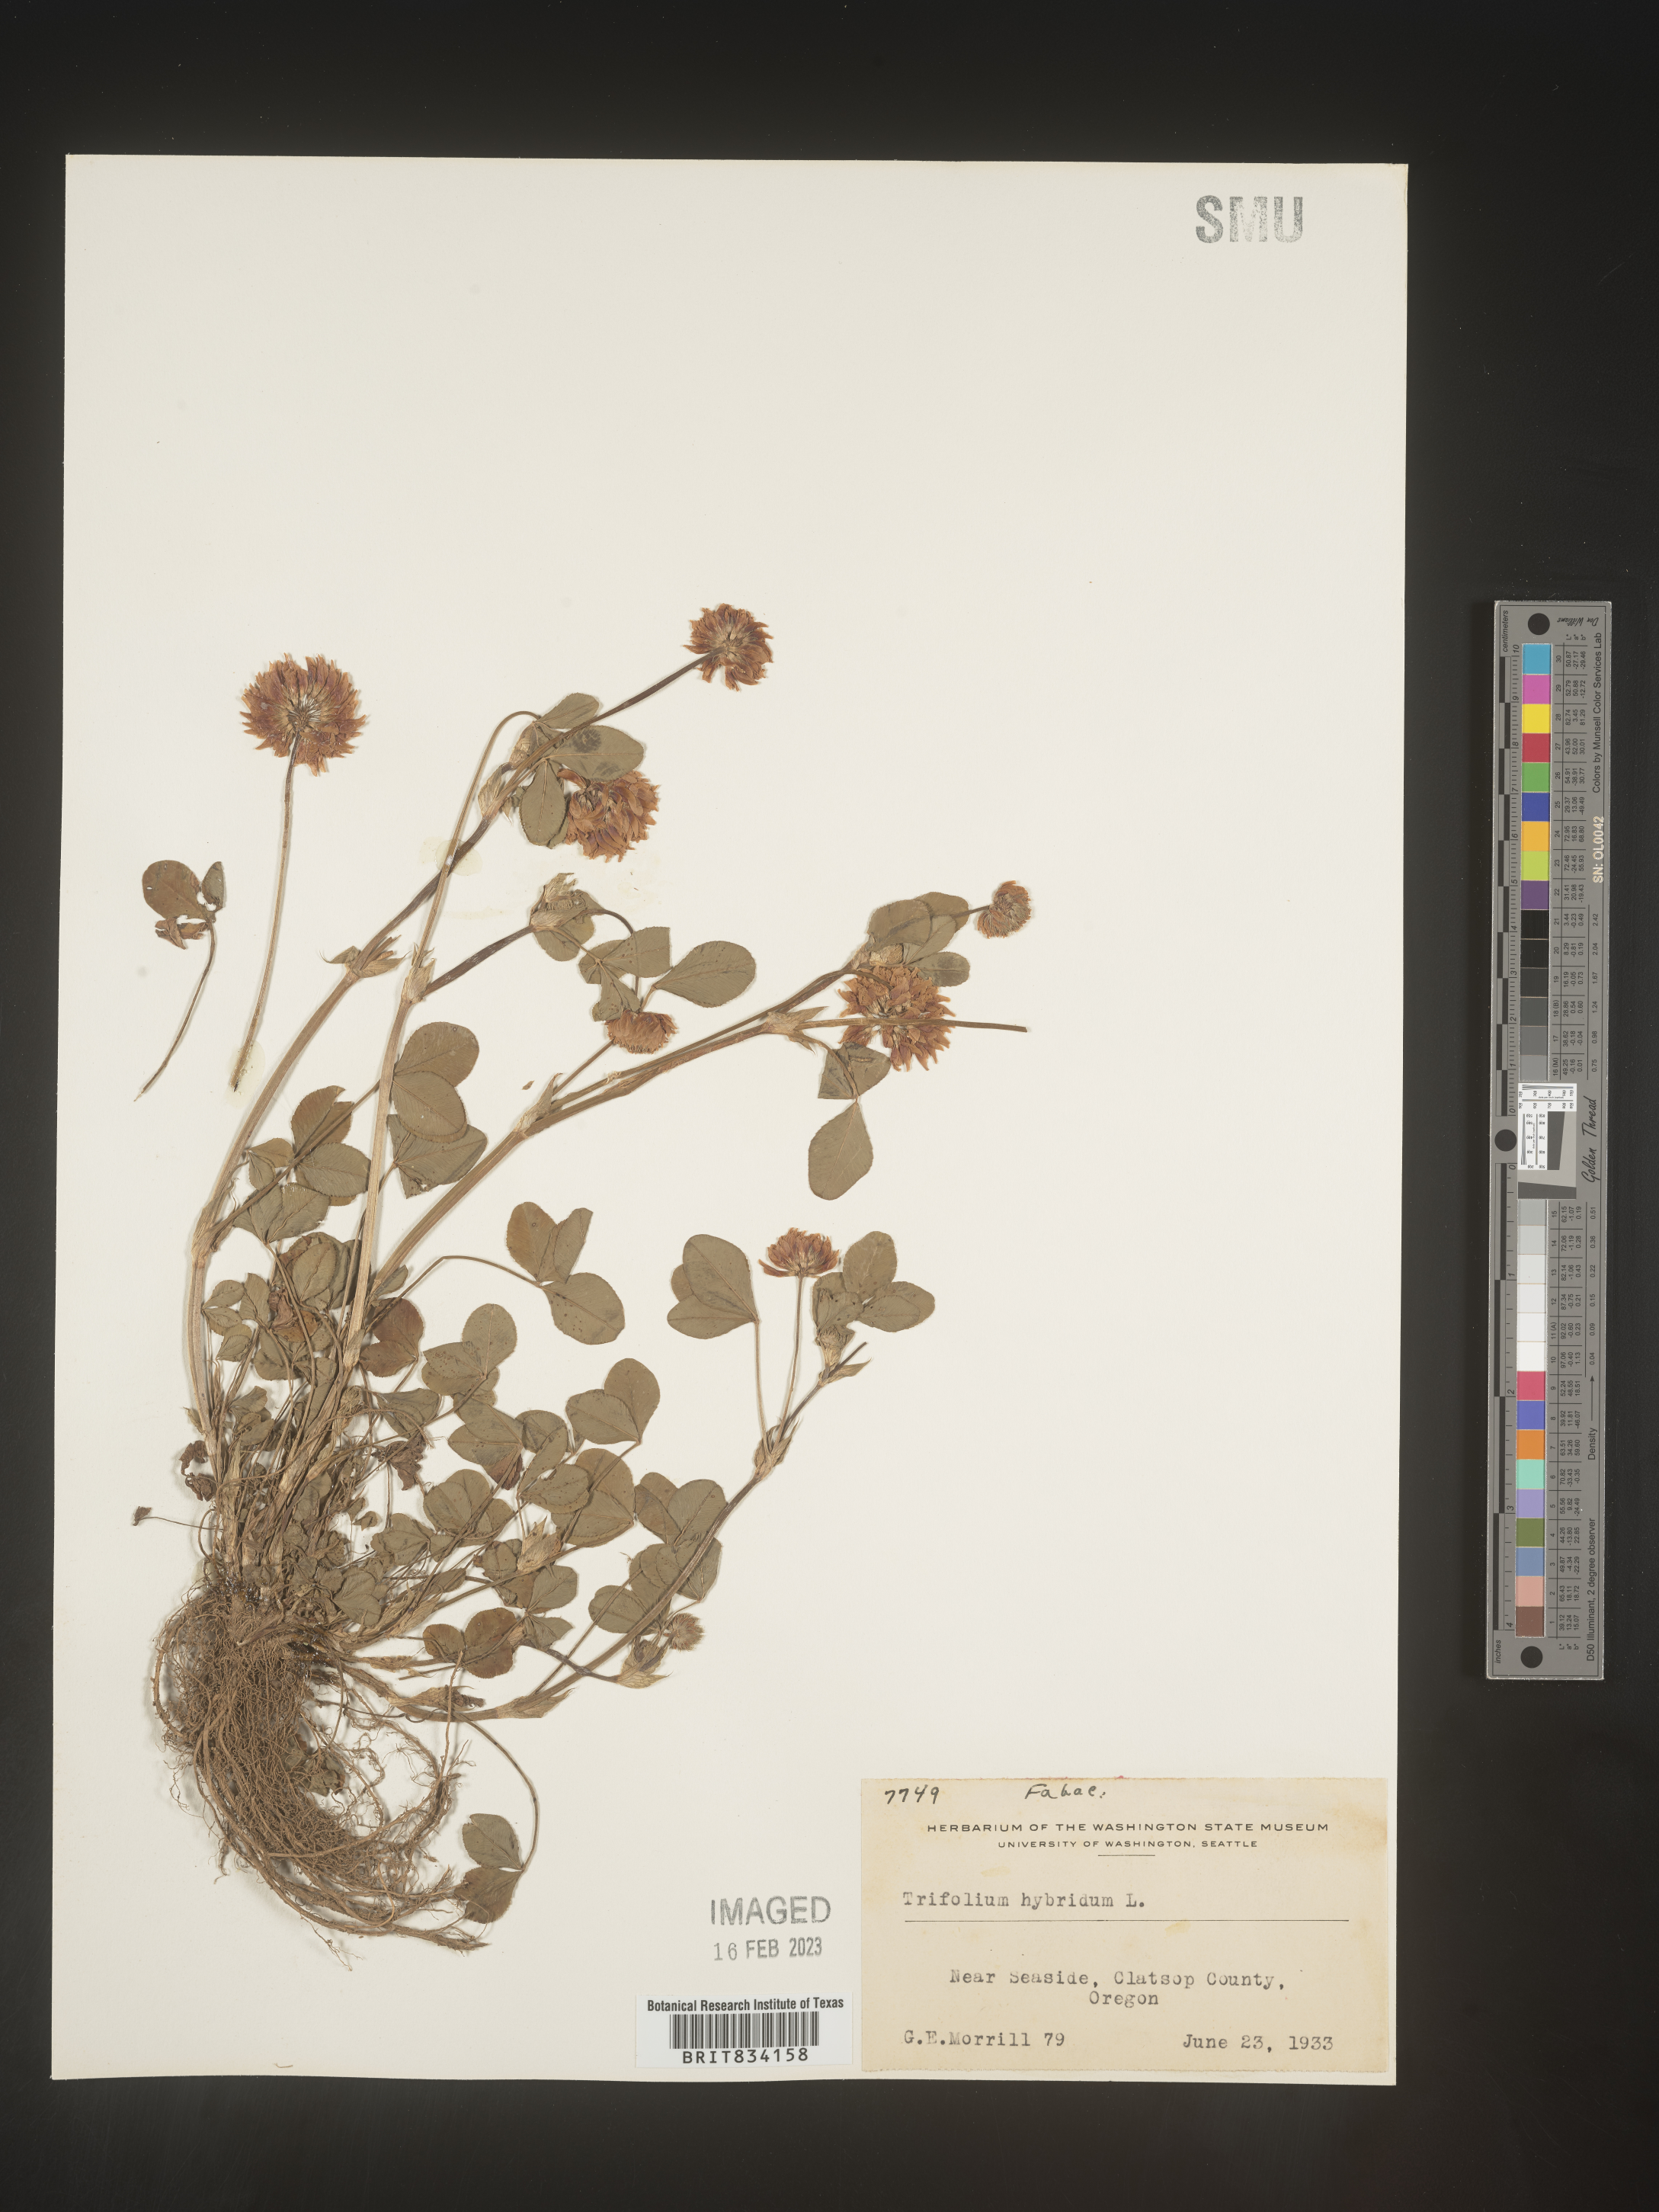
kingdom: Plantae
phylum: Tracheophyta
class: Magnoliopsida
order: Fabales
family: Fabaceae
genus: Trifolium
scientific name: Trifolium hybridum
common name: Alsike clover
